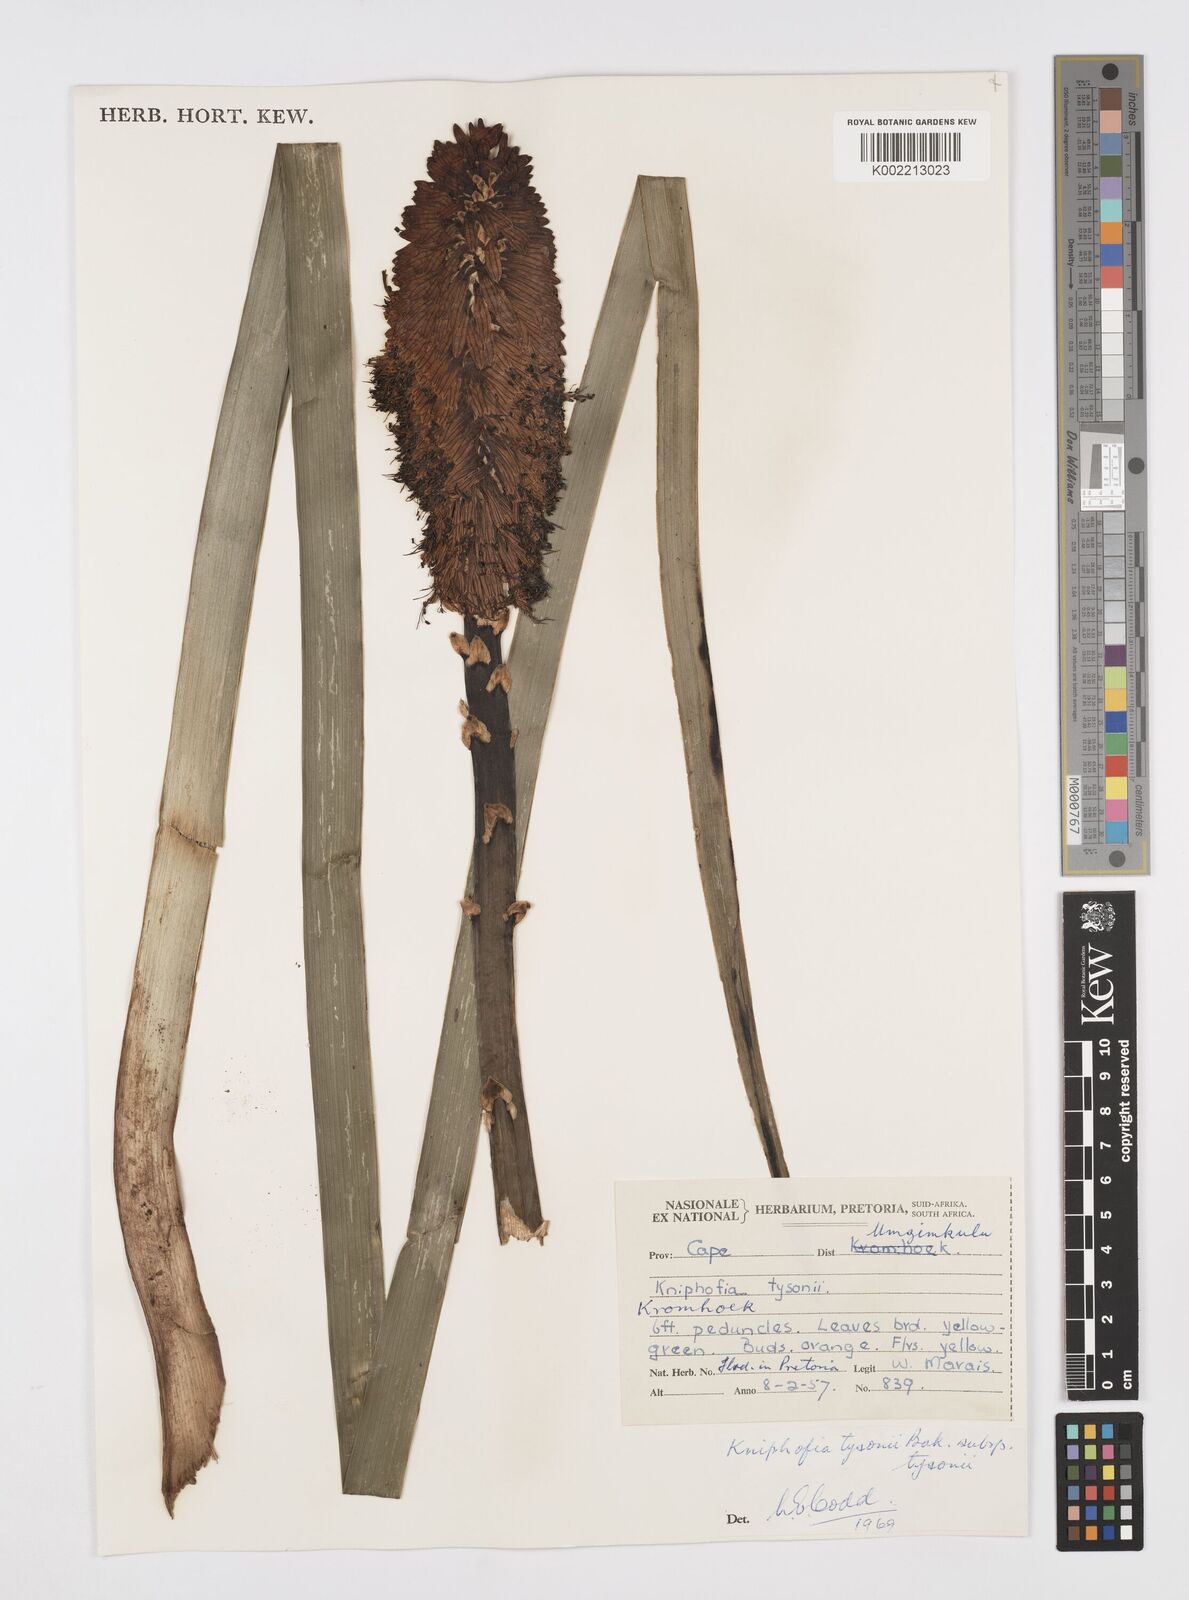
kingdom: Plantae
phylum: Tracheophyta
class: Liliopsida
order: Asparagales
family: Asphodelaceae
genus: Kniphofia
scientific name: Kniphofia tysonii
